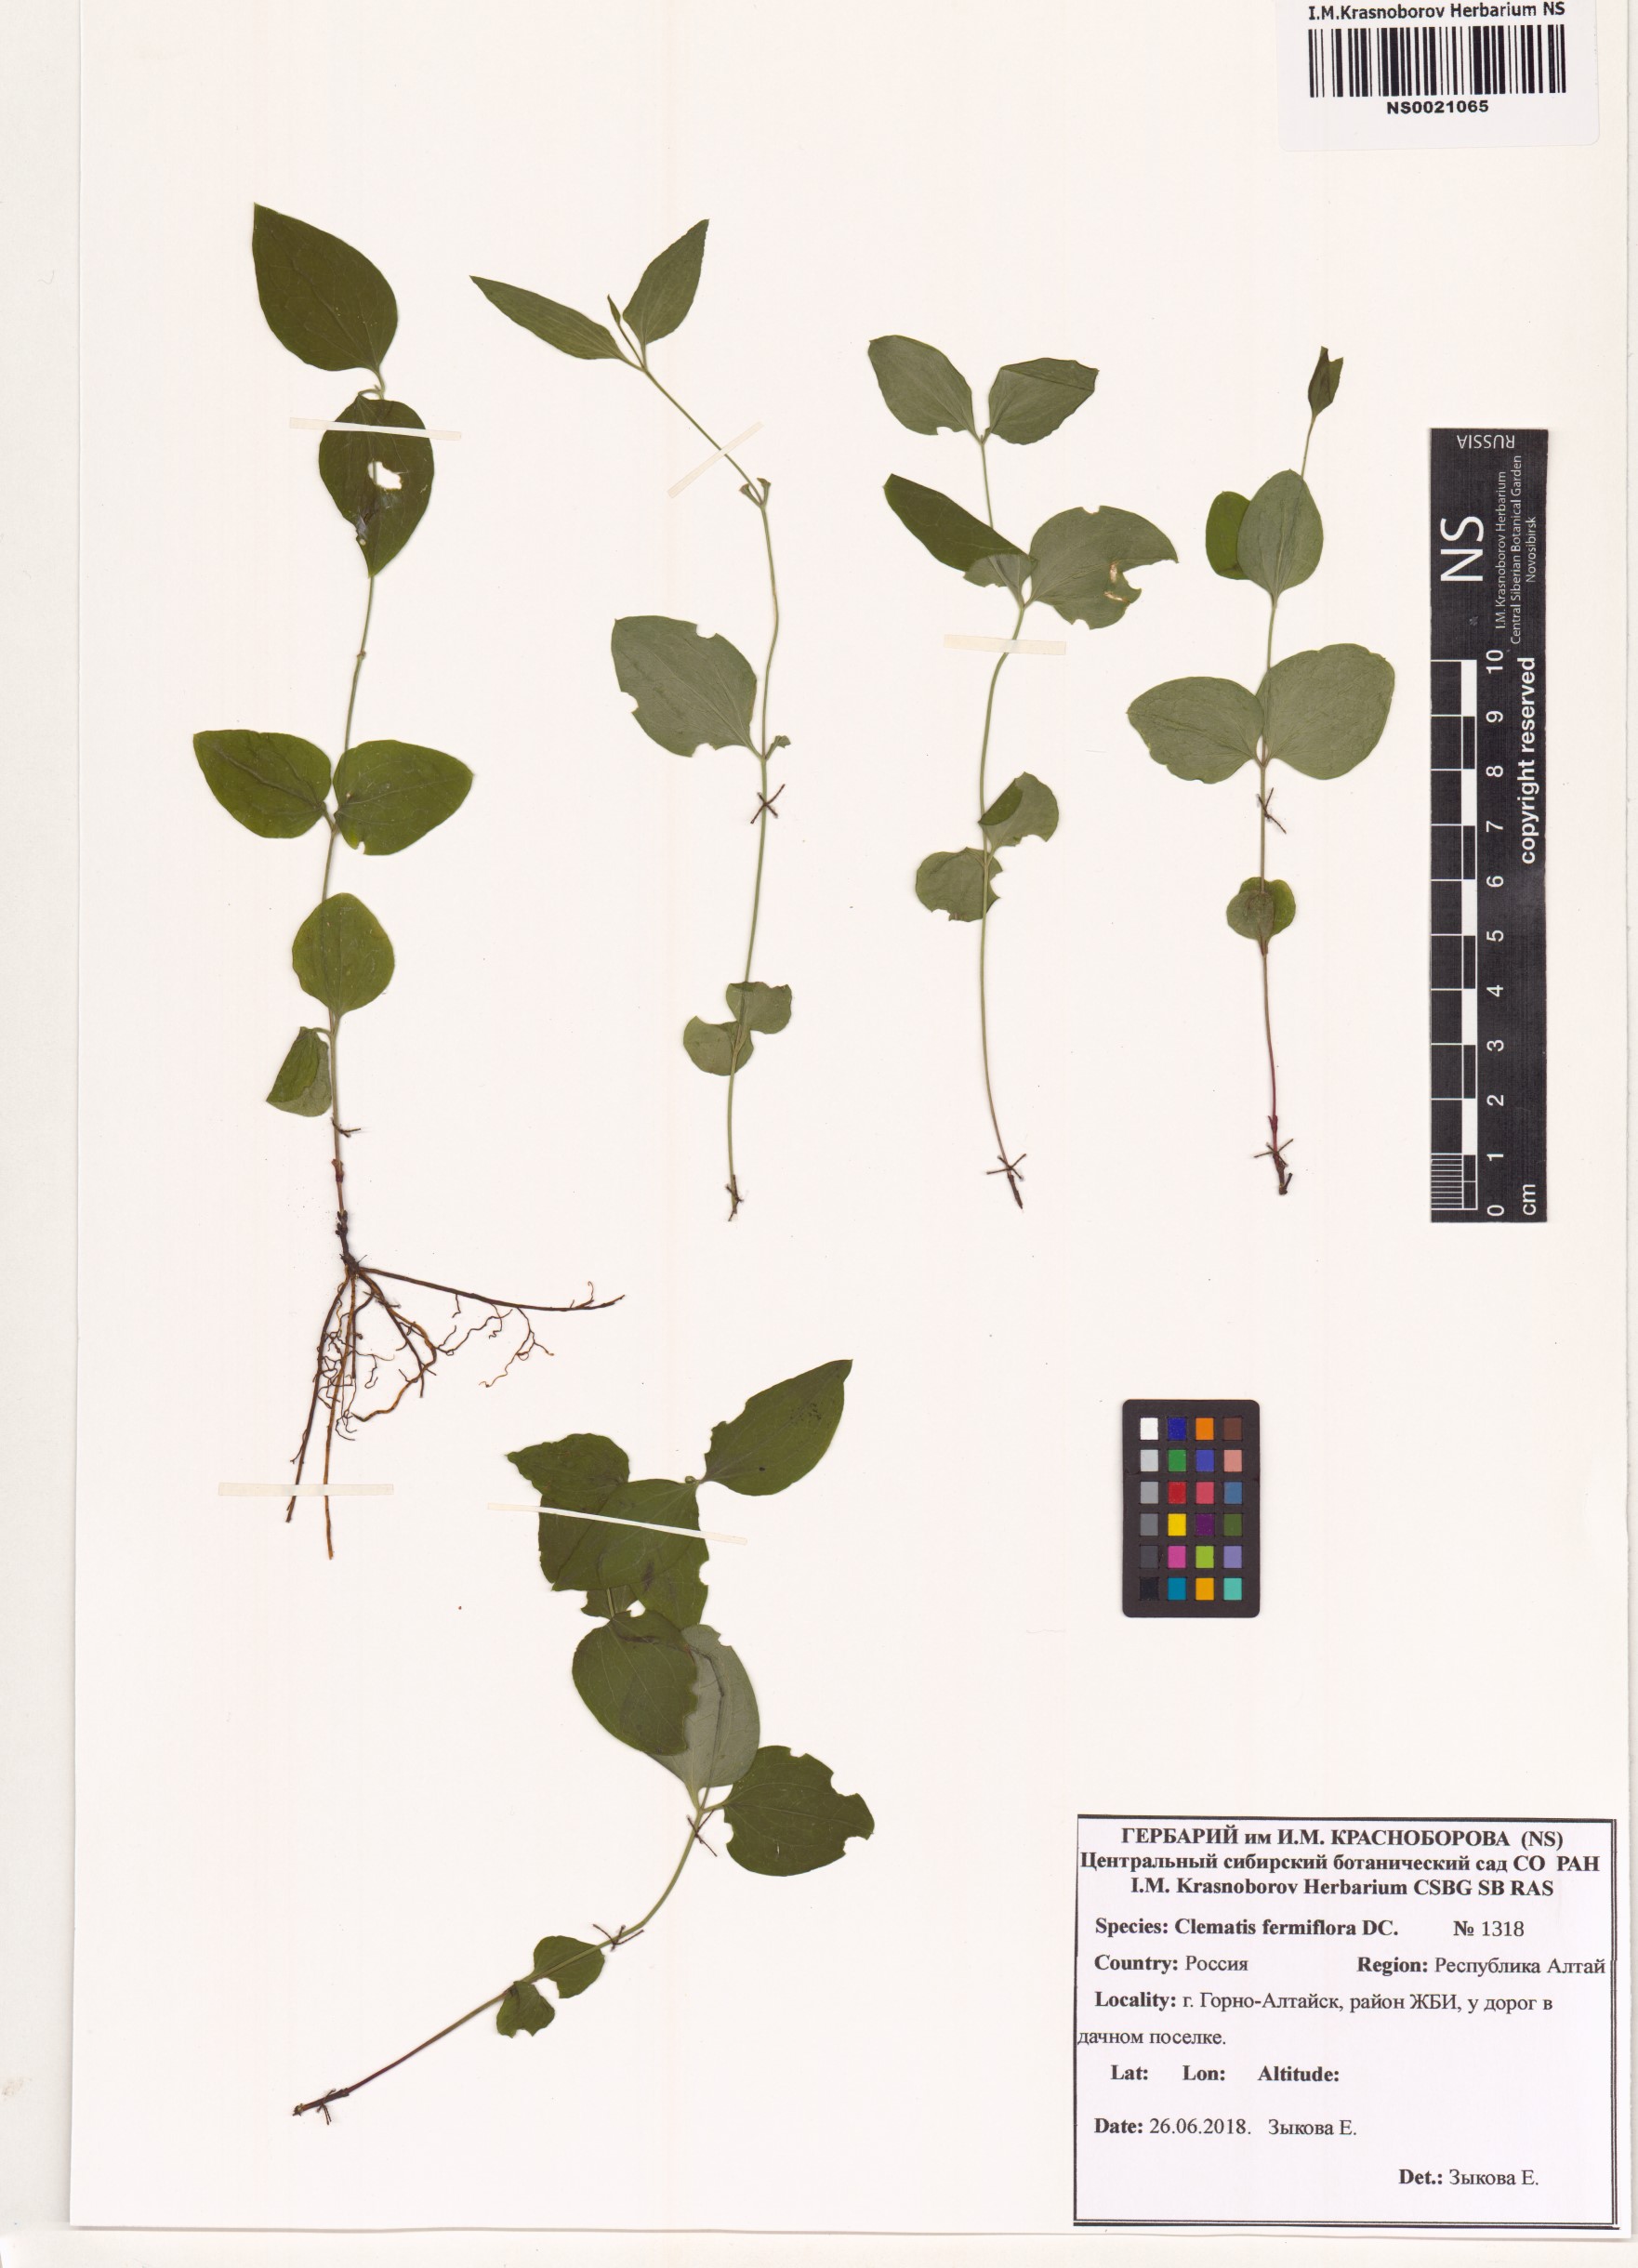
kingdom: Plantae
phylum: Tracheophyta
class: Magnoliopsida
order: Ranunculales
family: Ranunculaceae
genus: Clematis
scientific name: Clematis terniflora
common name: Sweet autumn clematis
